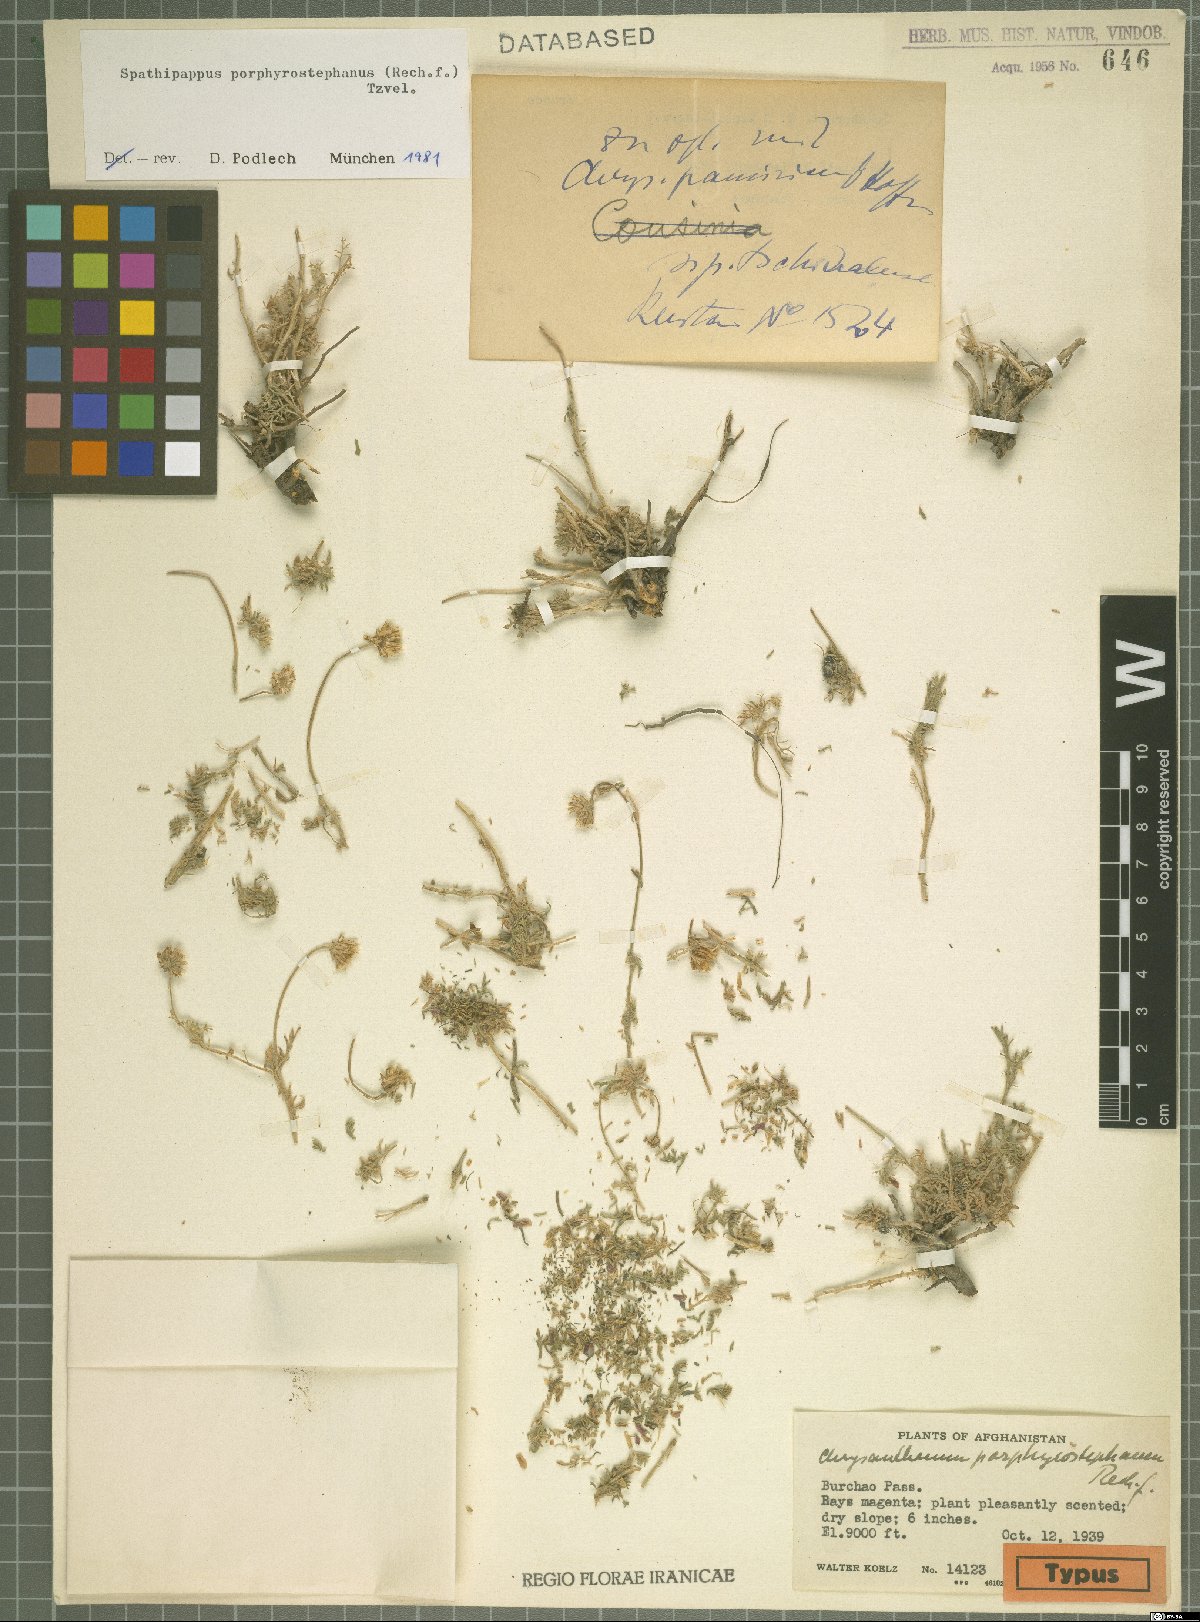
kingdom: Plantae
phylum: Tracheophyta
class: Magnoliopsida
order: Asterales
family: Asteraceae
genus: Tanacetum
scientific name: Tanacetum porphyrostephanum
